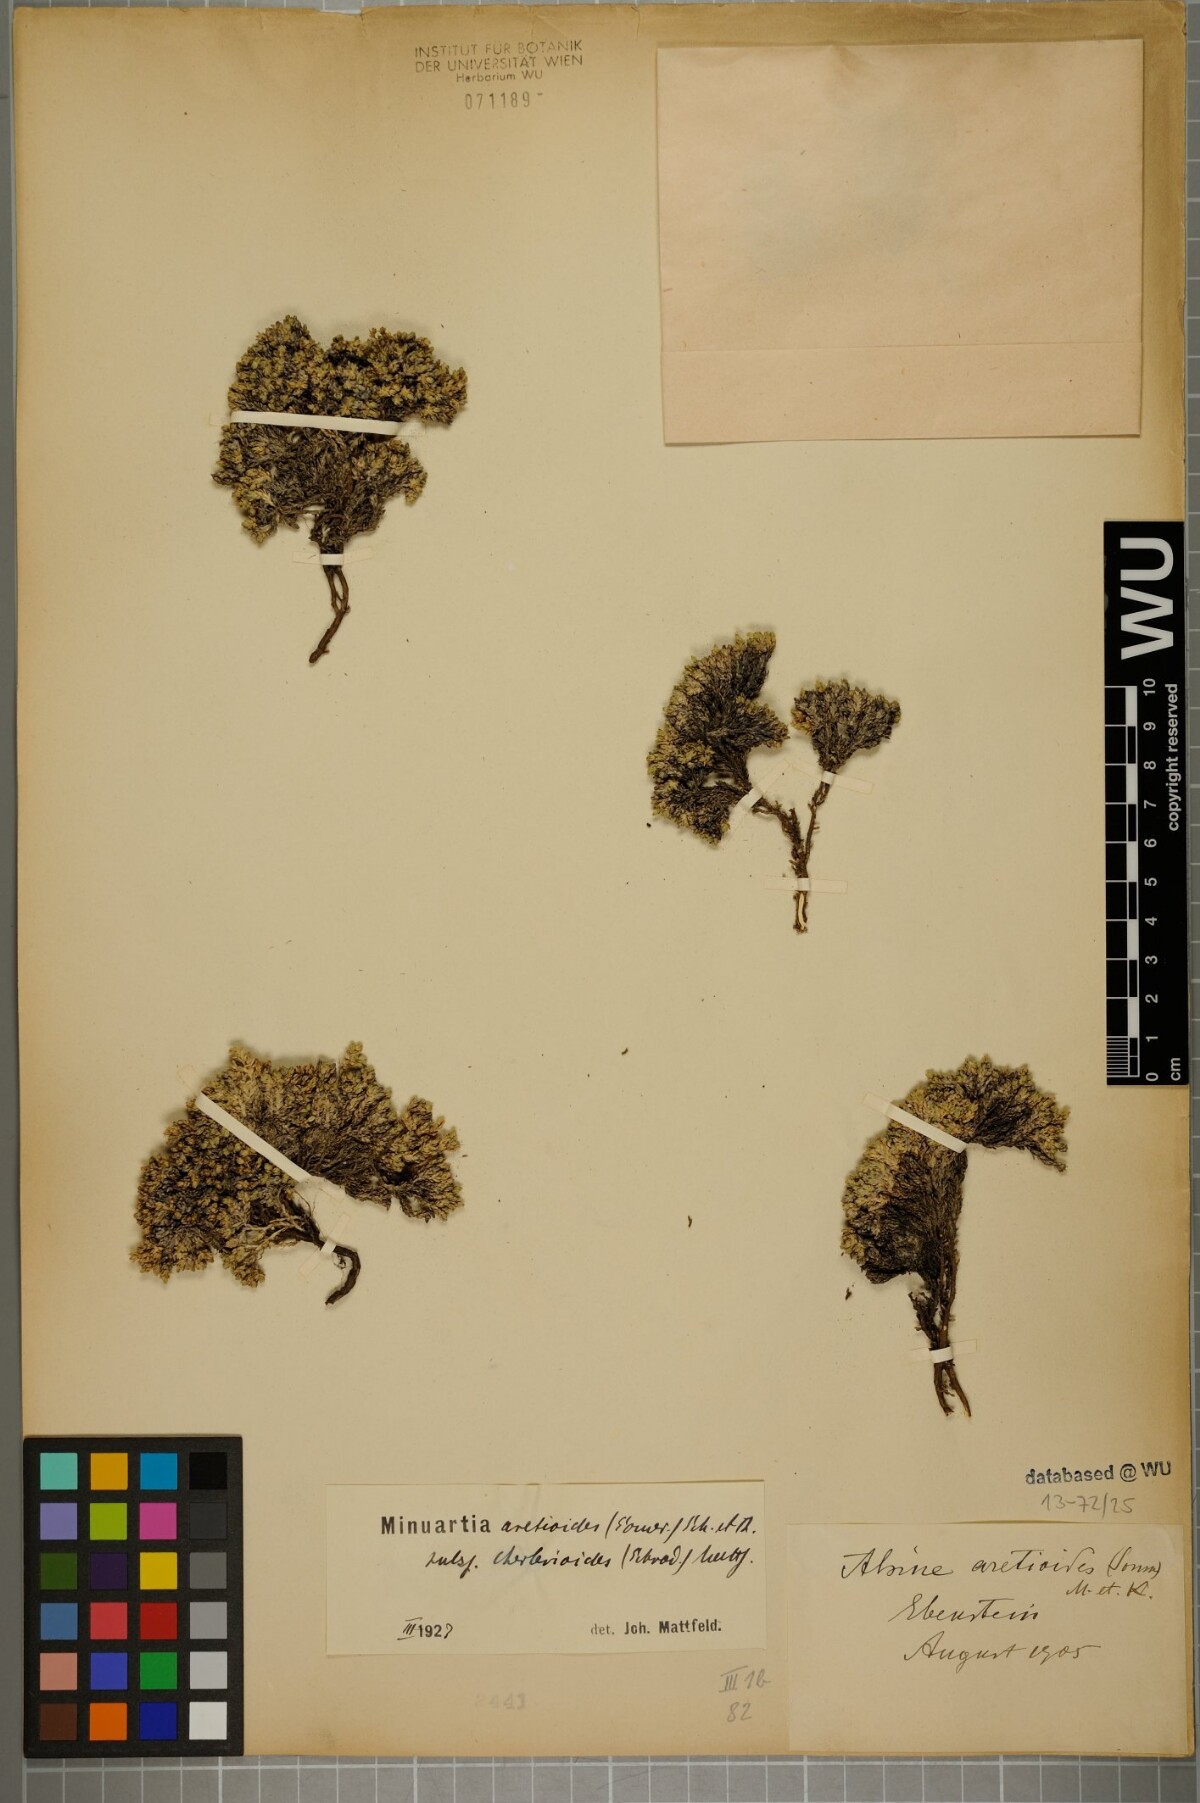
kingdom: Plantae
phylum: Tracheophyta
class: Magnoliopsida
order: Caryophyllales
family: Caryophyllaceae
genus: Facchinia
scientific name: Facchinia cherlerioides
